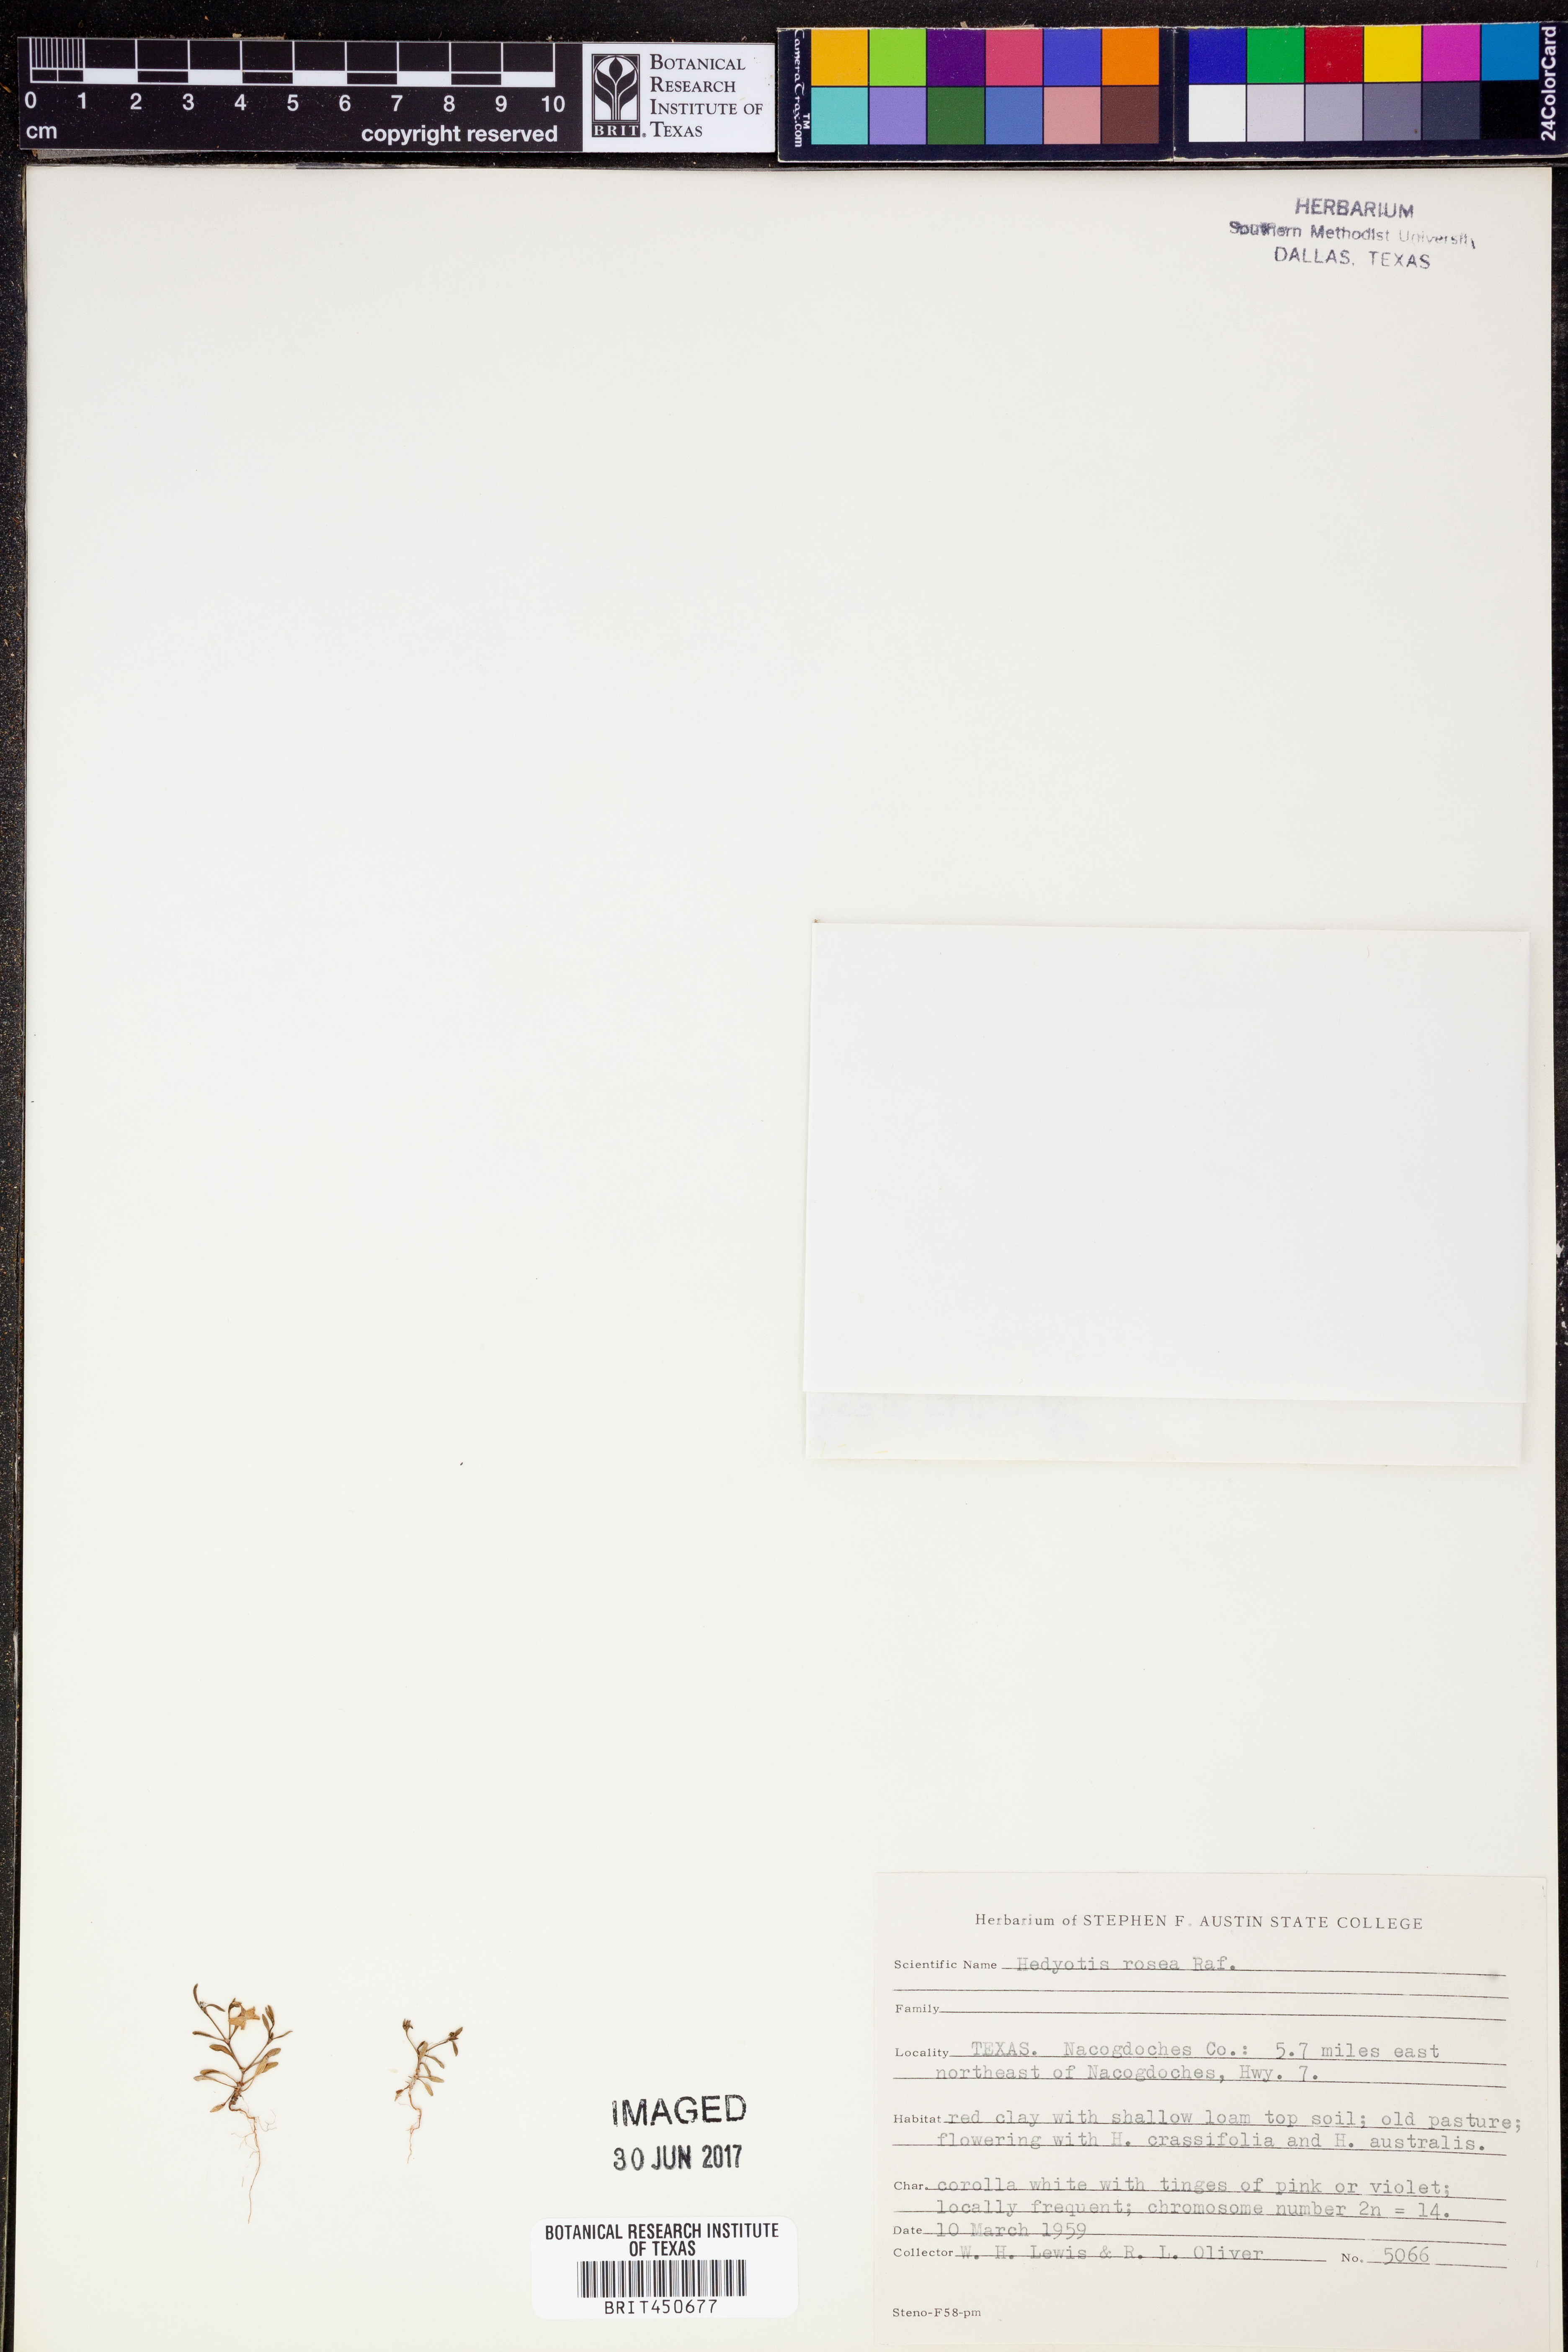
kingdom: Plantae
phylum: Tracheophyta
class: Magnoliopsida
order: Gentianales
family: Rubiaceae
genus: Houstonia
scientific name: Houstonia rosea
